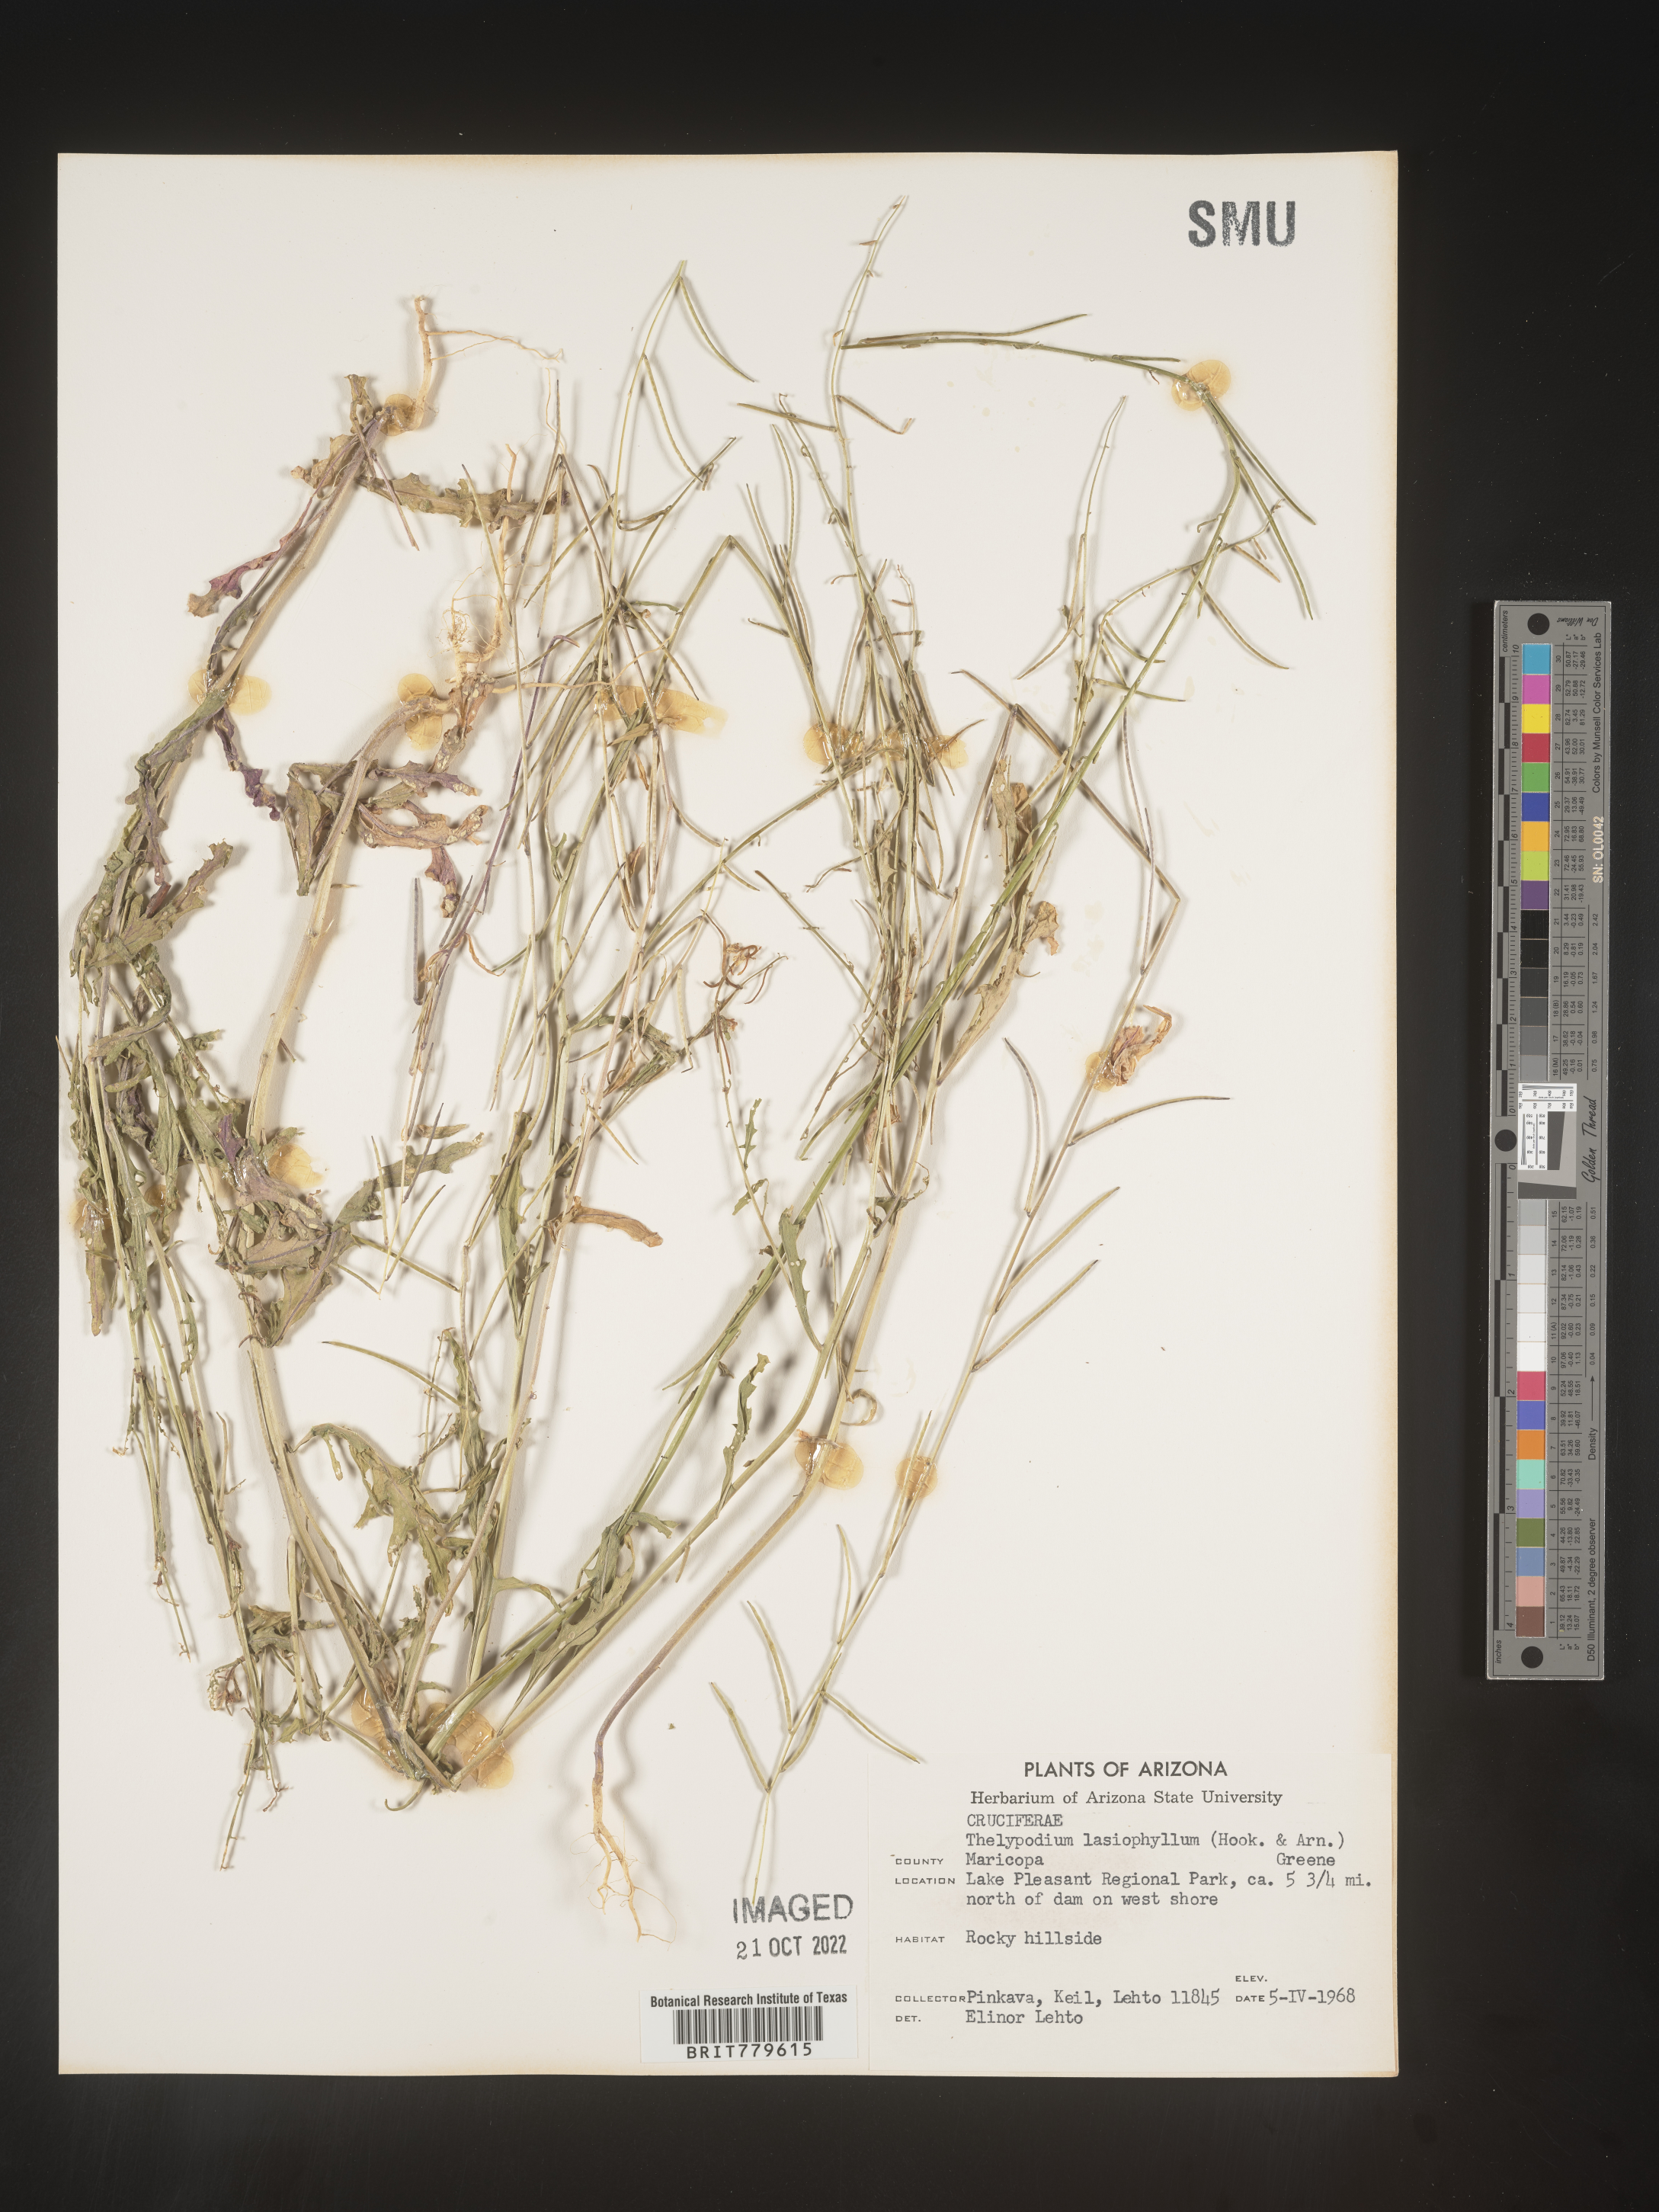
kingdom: Plantae
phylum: Tracheophyta
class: Magnoliopsida
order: Brassicales
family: Brassicaceae
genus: Thelypodium
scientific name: Thelypodium
